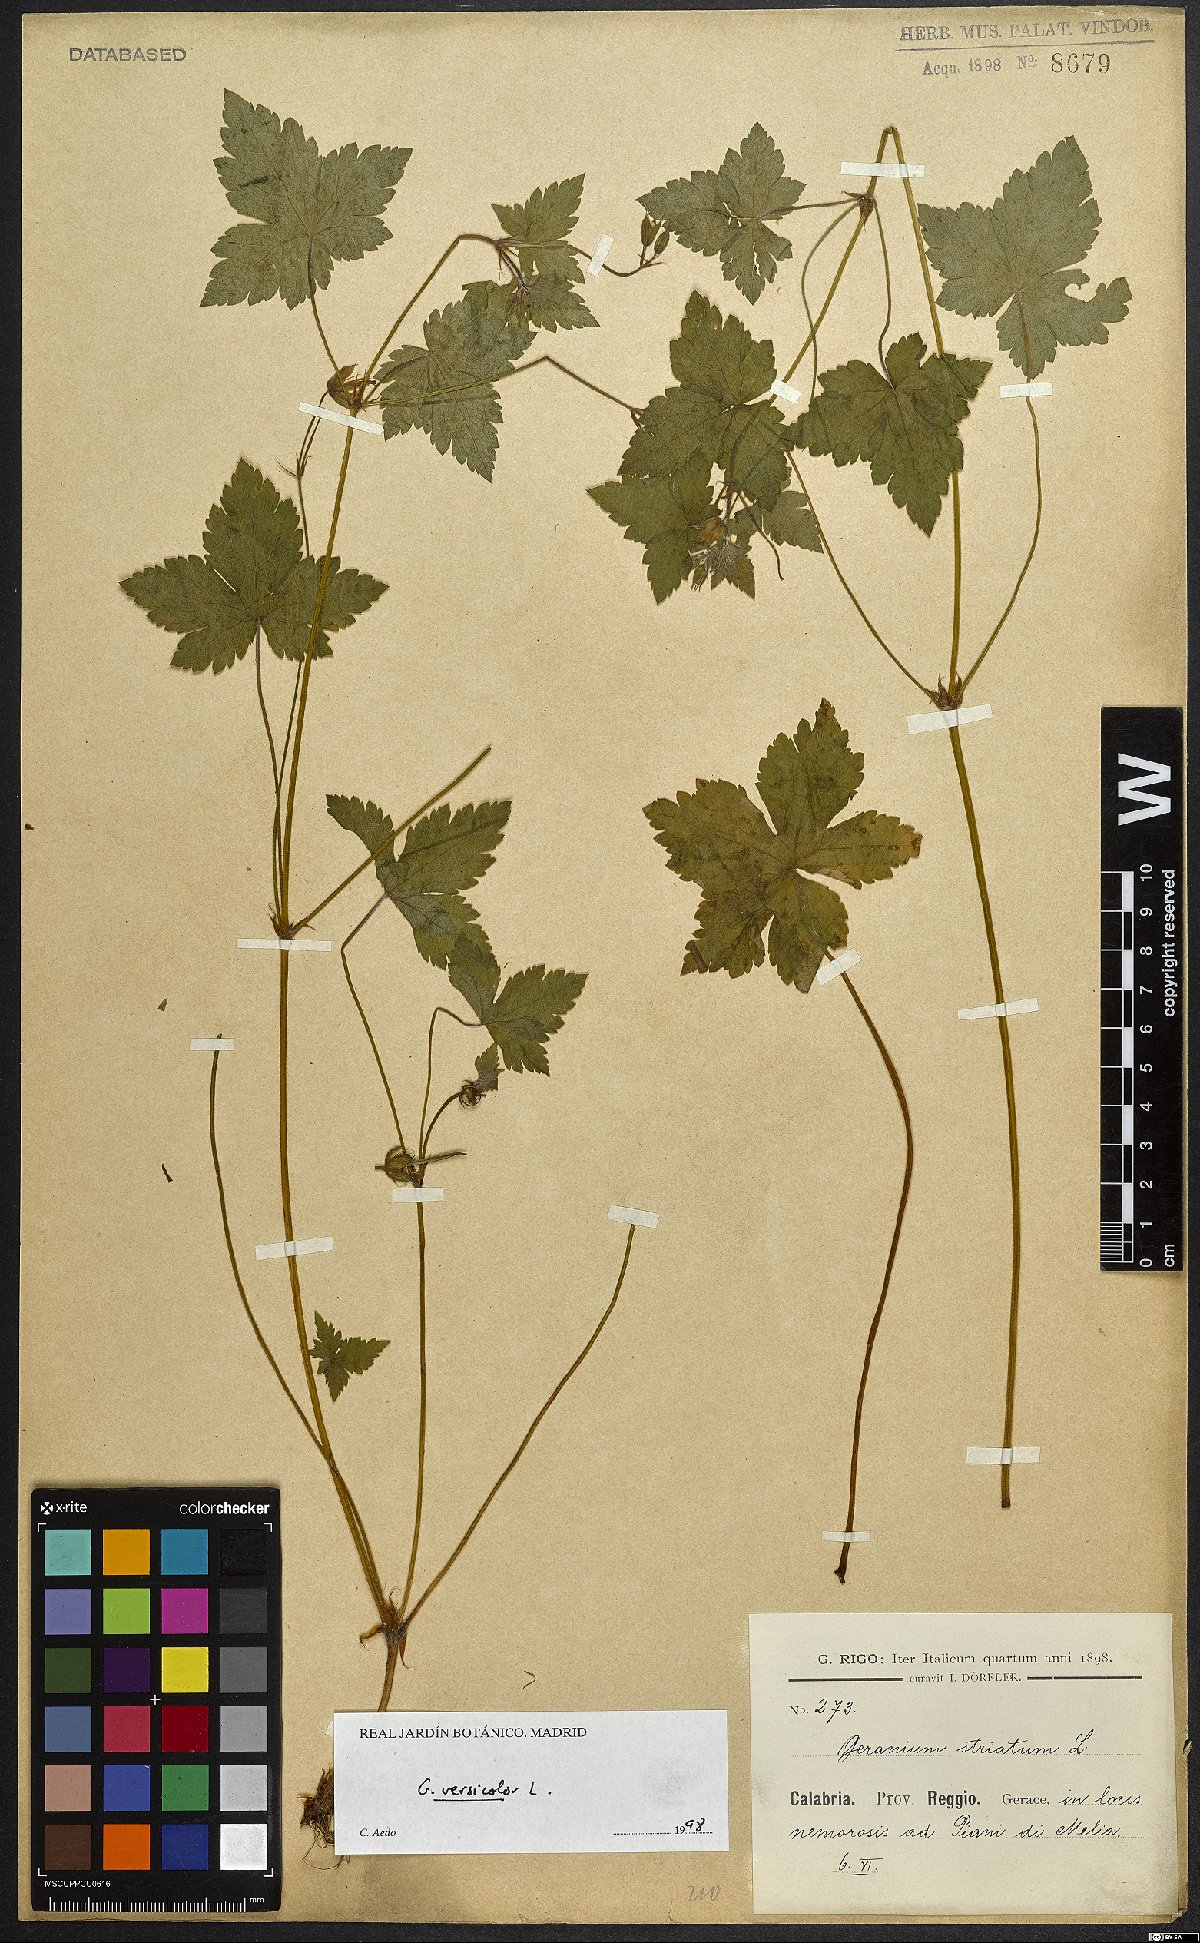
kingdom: Plantae
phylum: Tracheophyta
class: Magnoliopsida
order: Geraniales
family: Geraniaceae
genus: Geranium
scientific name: Geranium versicolor
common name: Pencilled crane's-bill
